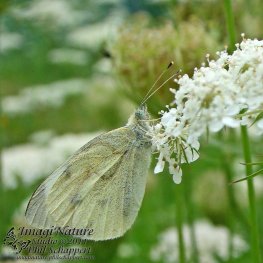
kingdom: Animalia
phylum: Arthropoda
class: Insecta
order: Lepidoptera
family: Pieridae
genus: Pieris
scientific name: Pieris rapae
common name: Cabbage White
